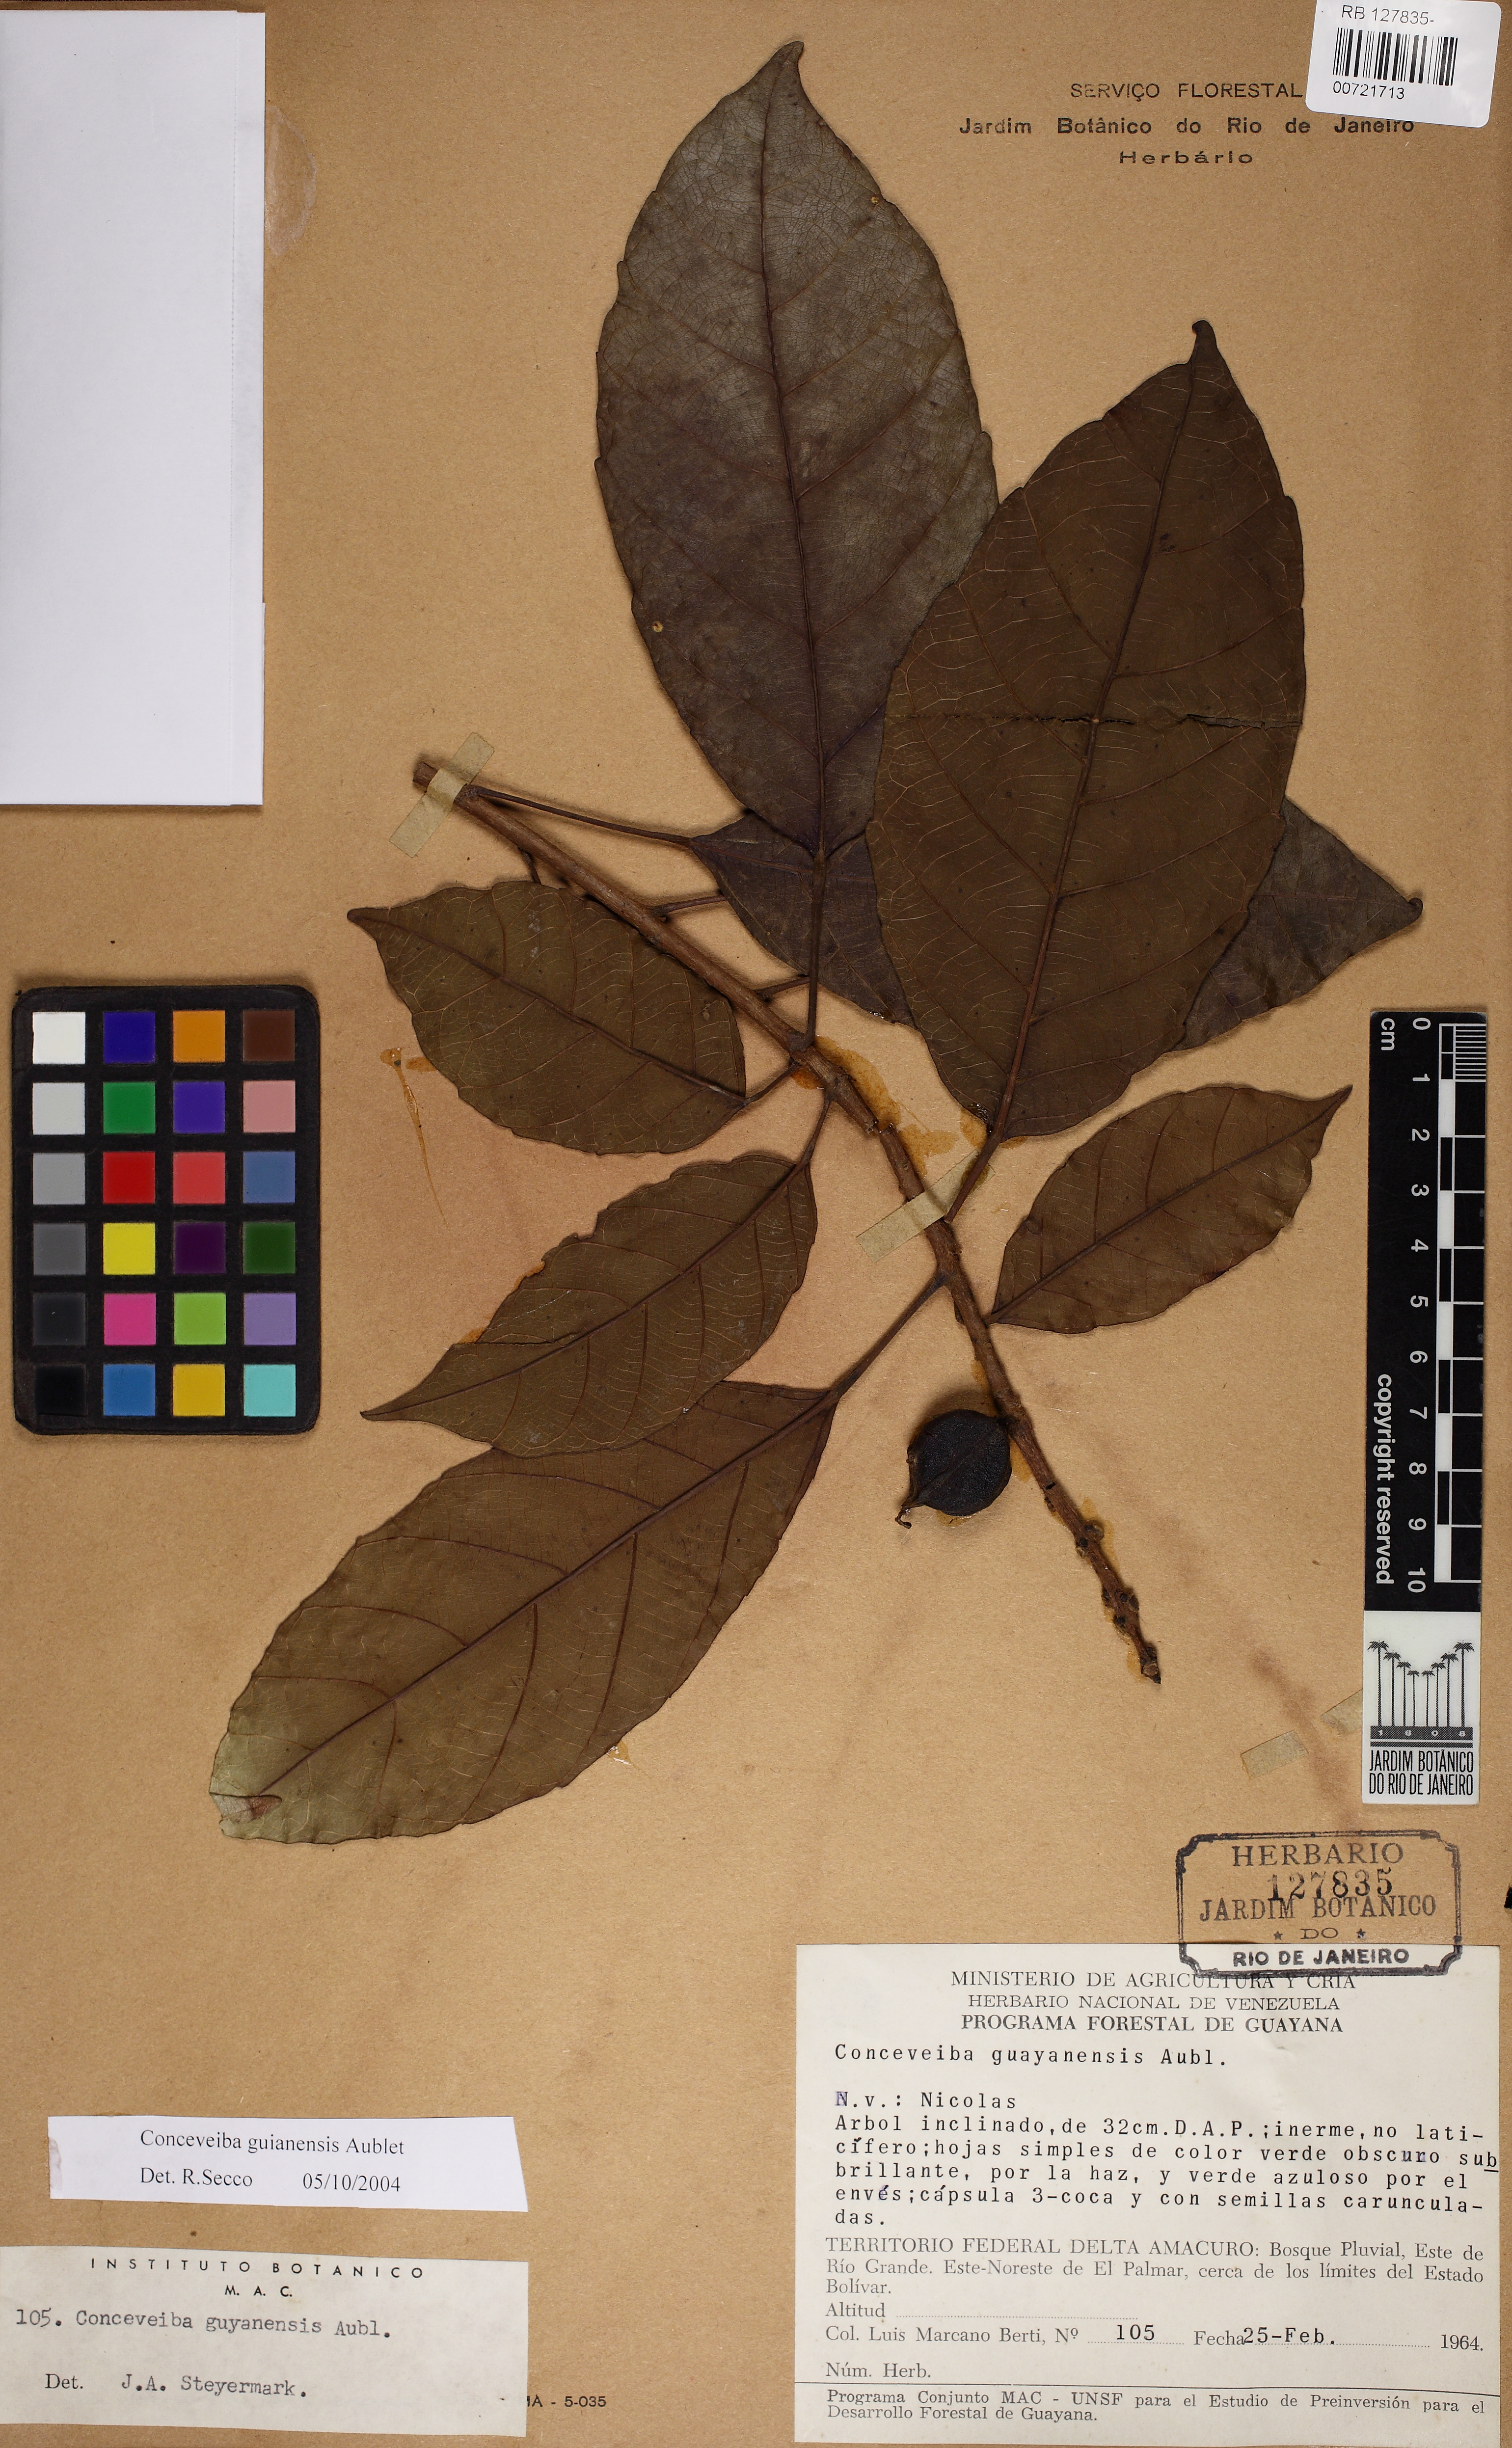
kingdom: Plantae
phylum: Tracheophyta
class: Magnoliopsida
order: Malpighiales
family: Euphorbiaceae
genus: Conceveiba
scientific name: Conceveiba guianensis
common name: Poatoru
